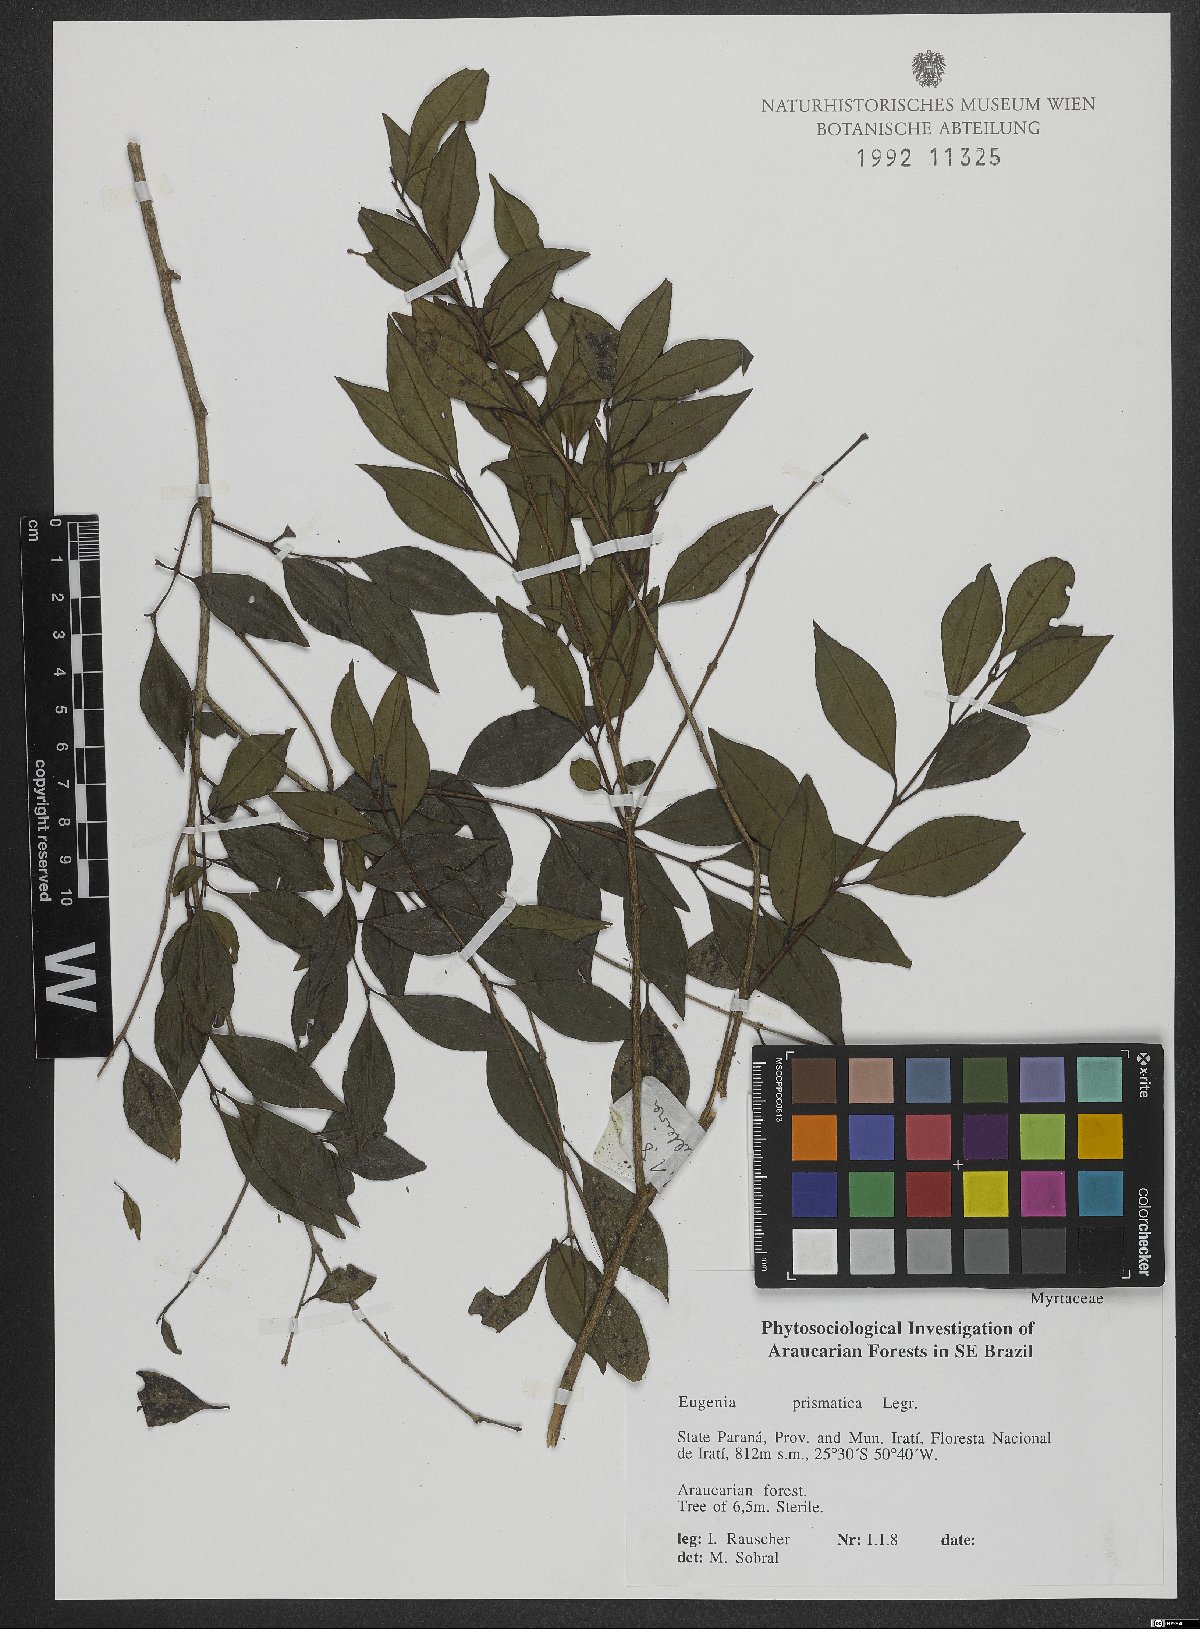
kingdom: Plantae
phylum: Tracheophyta
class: Magnoliopsida
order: Myrtales
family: Myrtaceae
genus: Curitiba
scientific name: Curitiba prismatica
